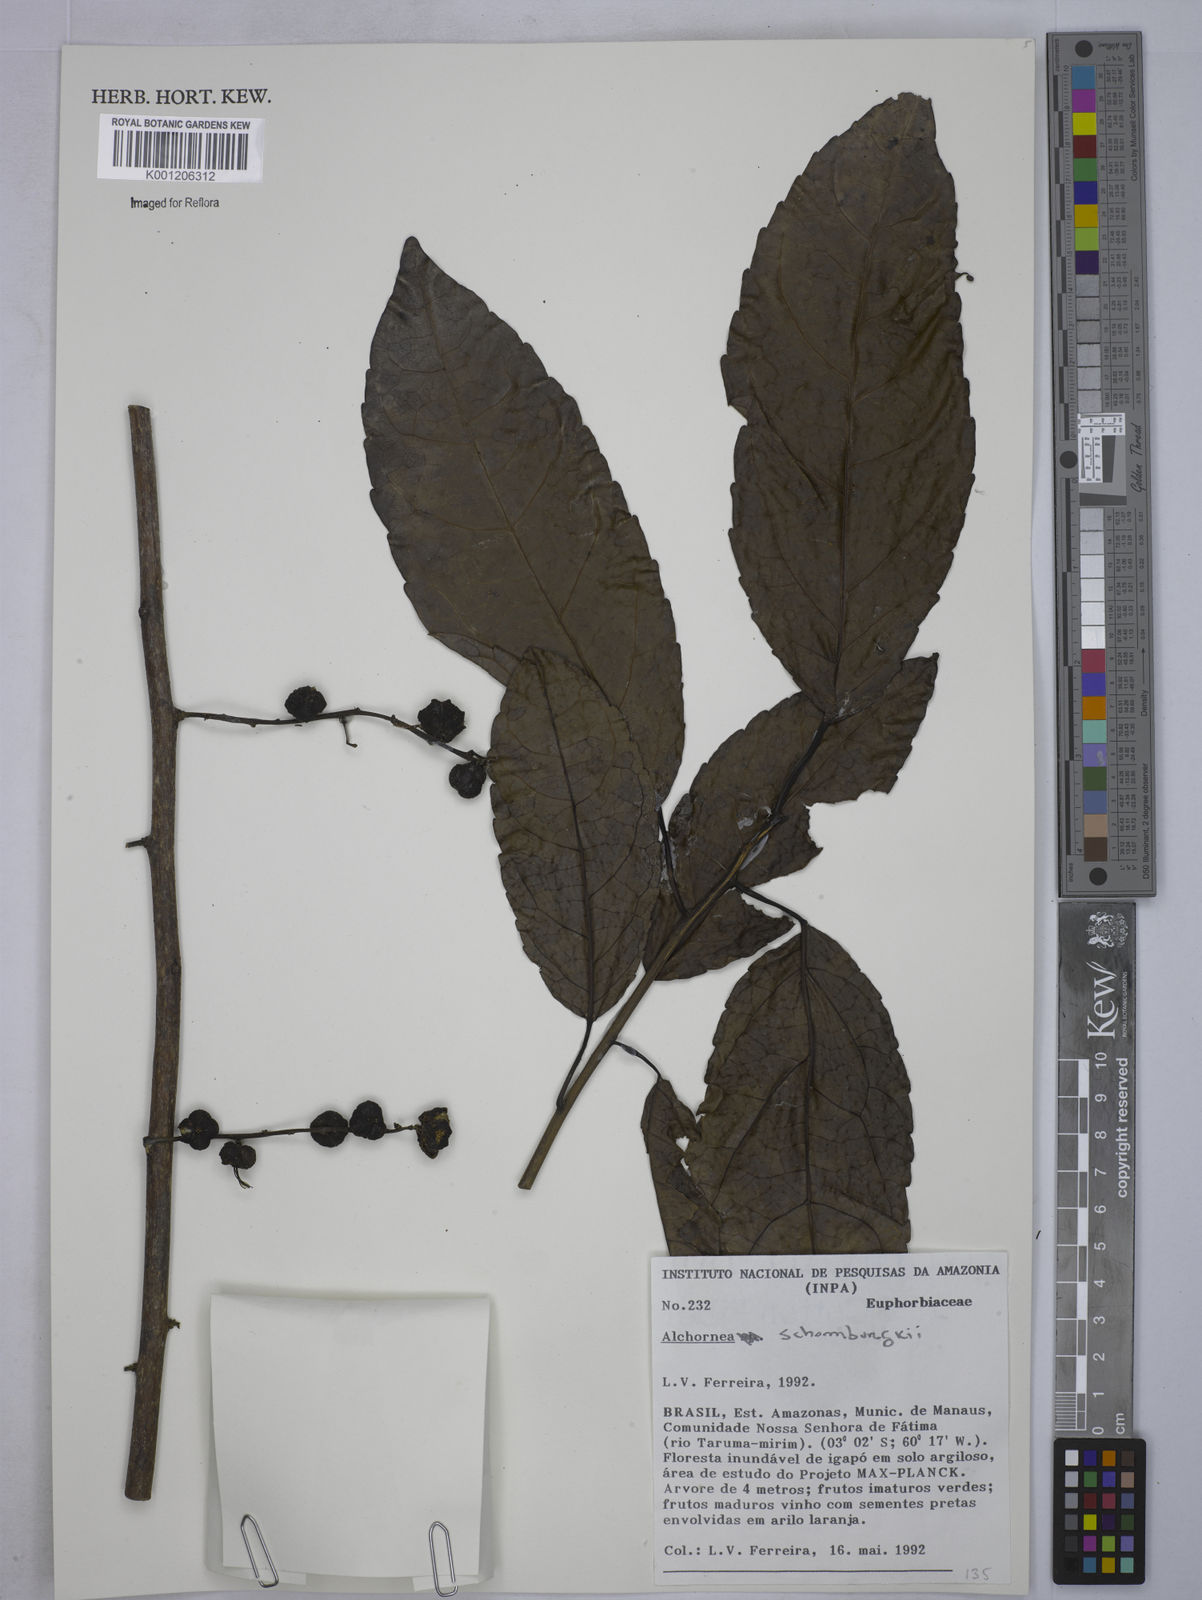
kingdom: Plantae
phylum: Tracheophyta
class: Magnoliopsida
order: Malpighiales
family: Euphorbiaceae
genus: Alchornea
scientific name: Alchornea discolor
